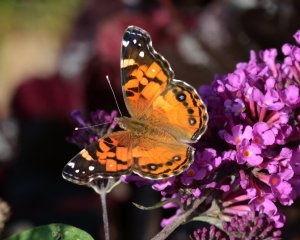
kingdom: Animalia
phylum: Arthropoda
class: Insecta
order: Lepidoptera
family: Nymphalidae
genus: Vanessa
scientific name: Vanessa virginiensis
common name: American Lady
